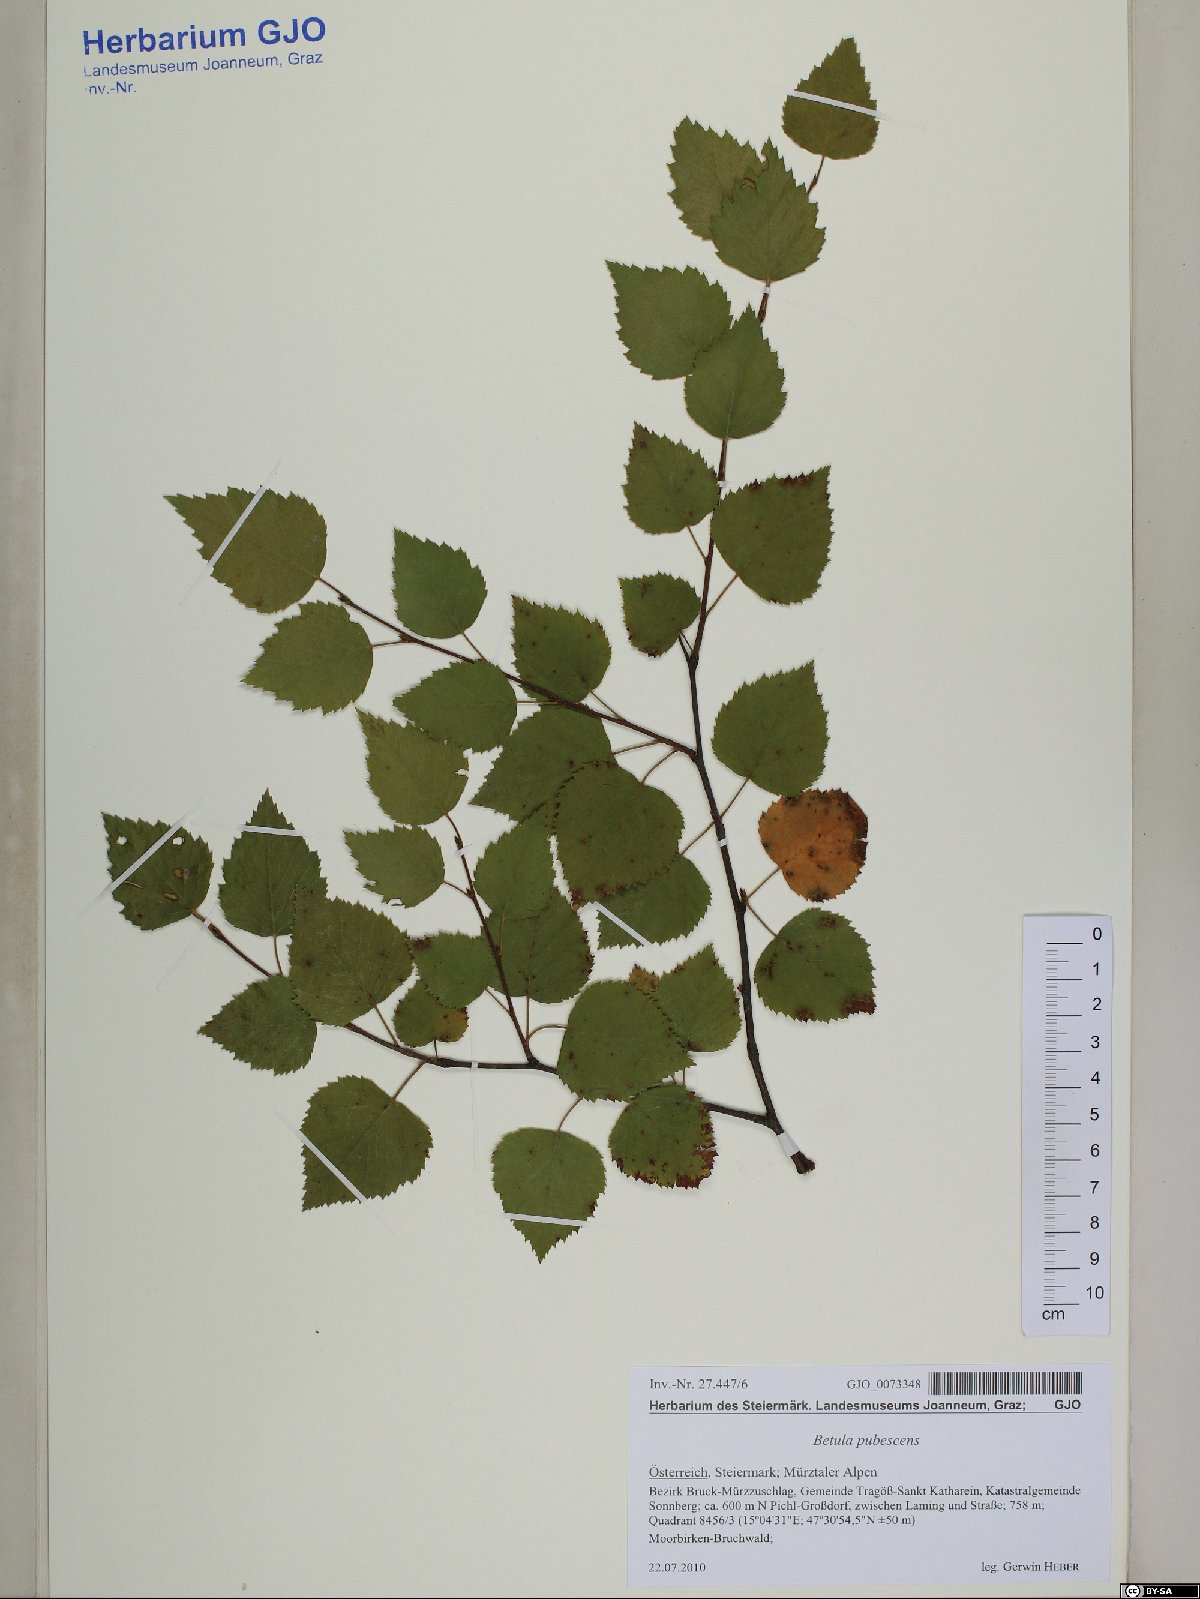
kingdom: Plantae
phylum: Tracheophyta
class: Magnoliopsida
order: Fagales
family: Betulaceae
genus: Betula
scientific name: Betula pubescens
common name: Downy birch
